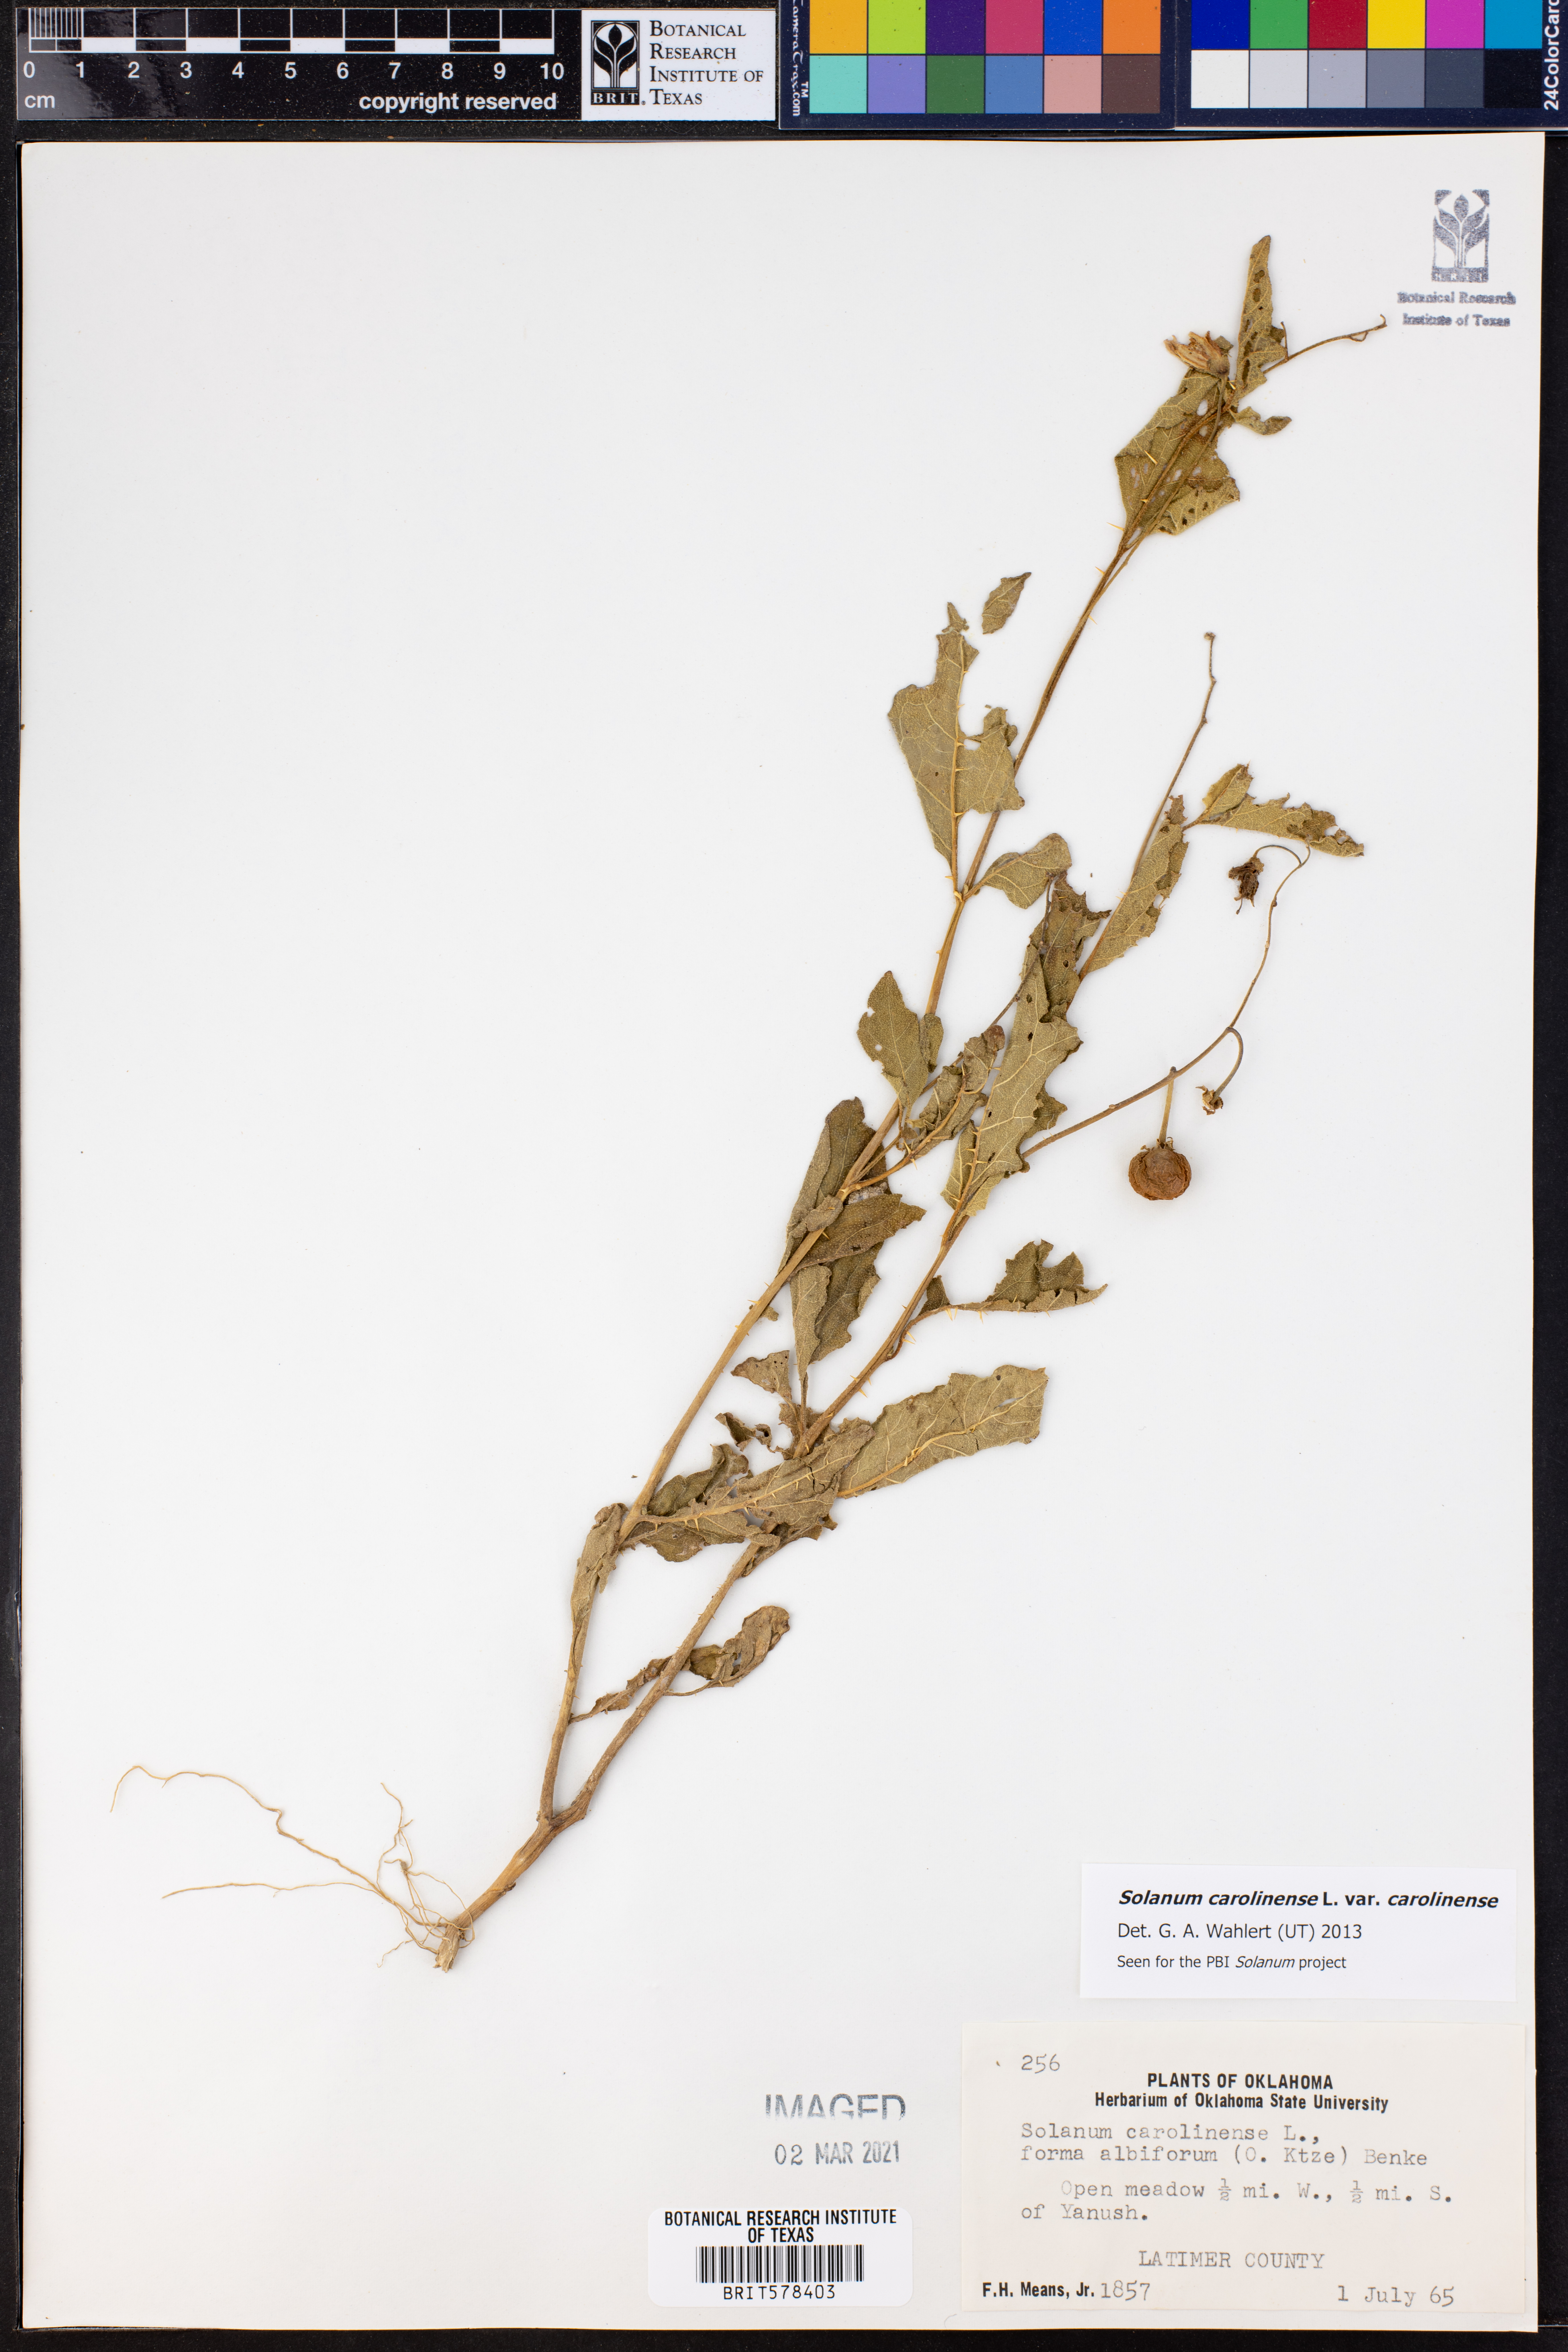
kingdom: Plantae
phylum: Tracheophyta
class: Magnoliopsida
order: Solanales
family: Solanaceae
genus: Solanum
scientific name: Solanum carolinense
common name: Horse-nettle
